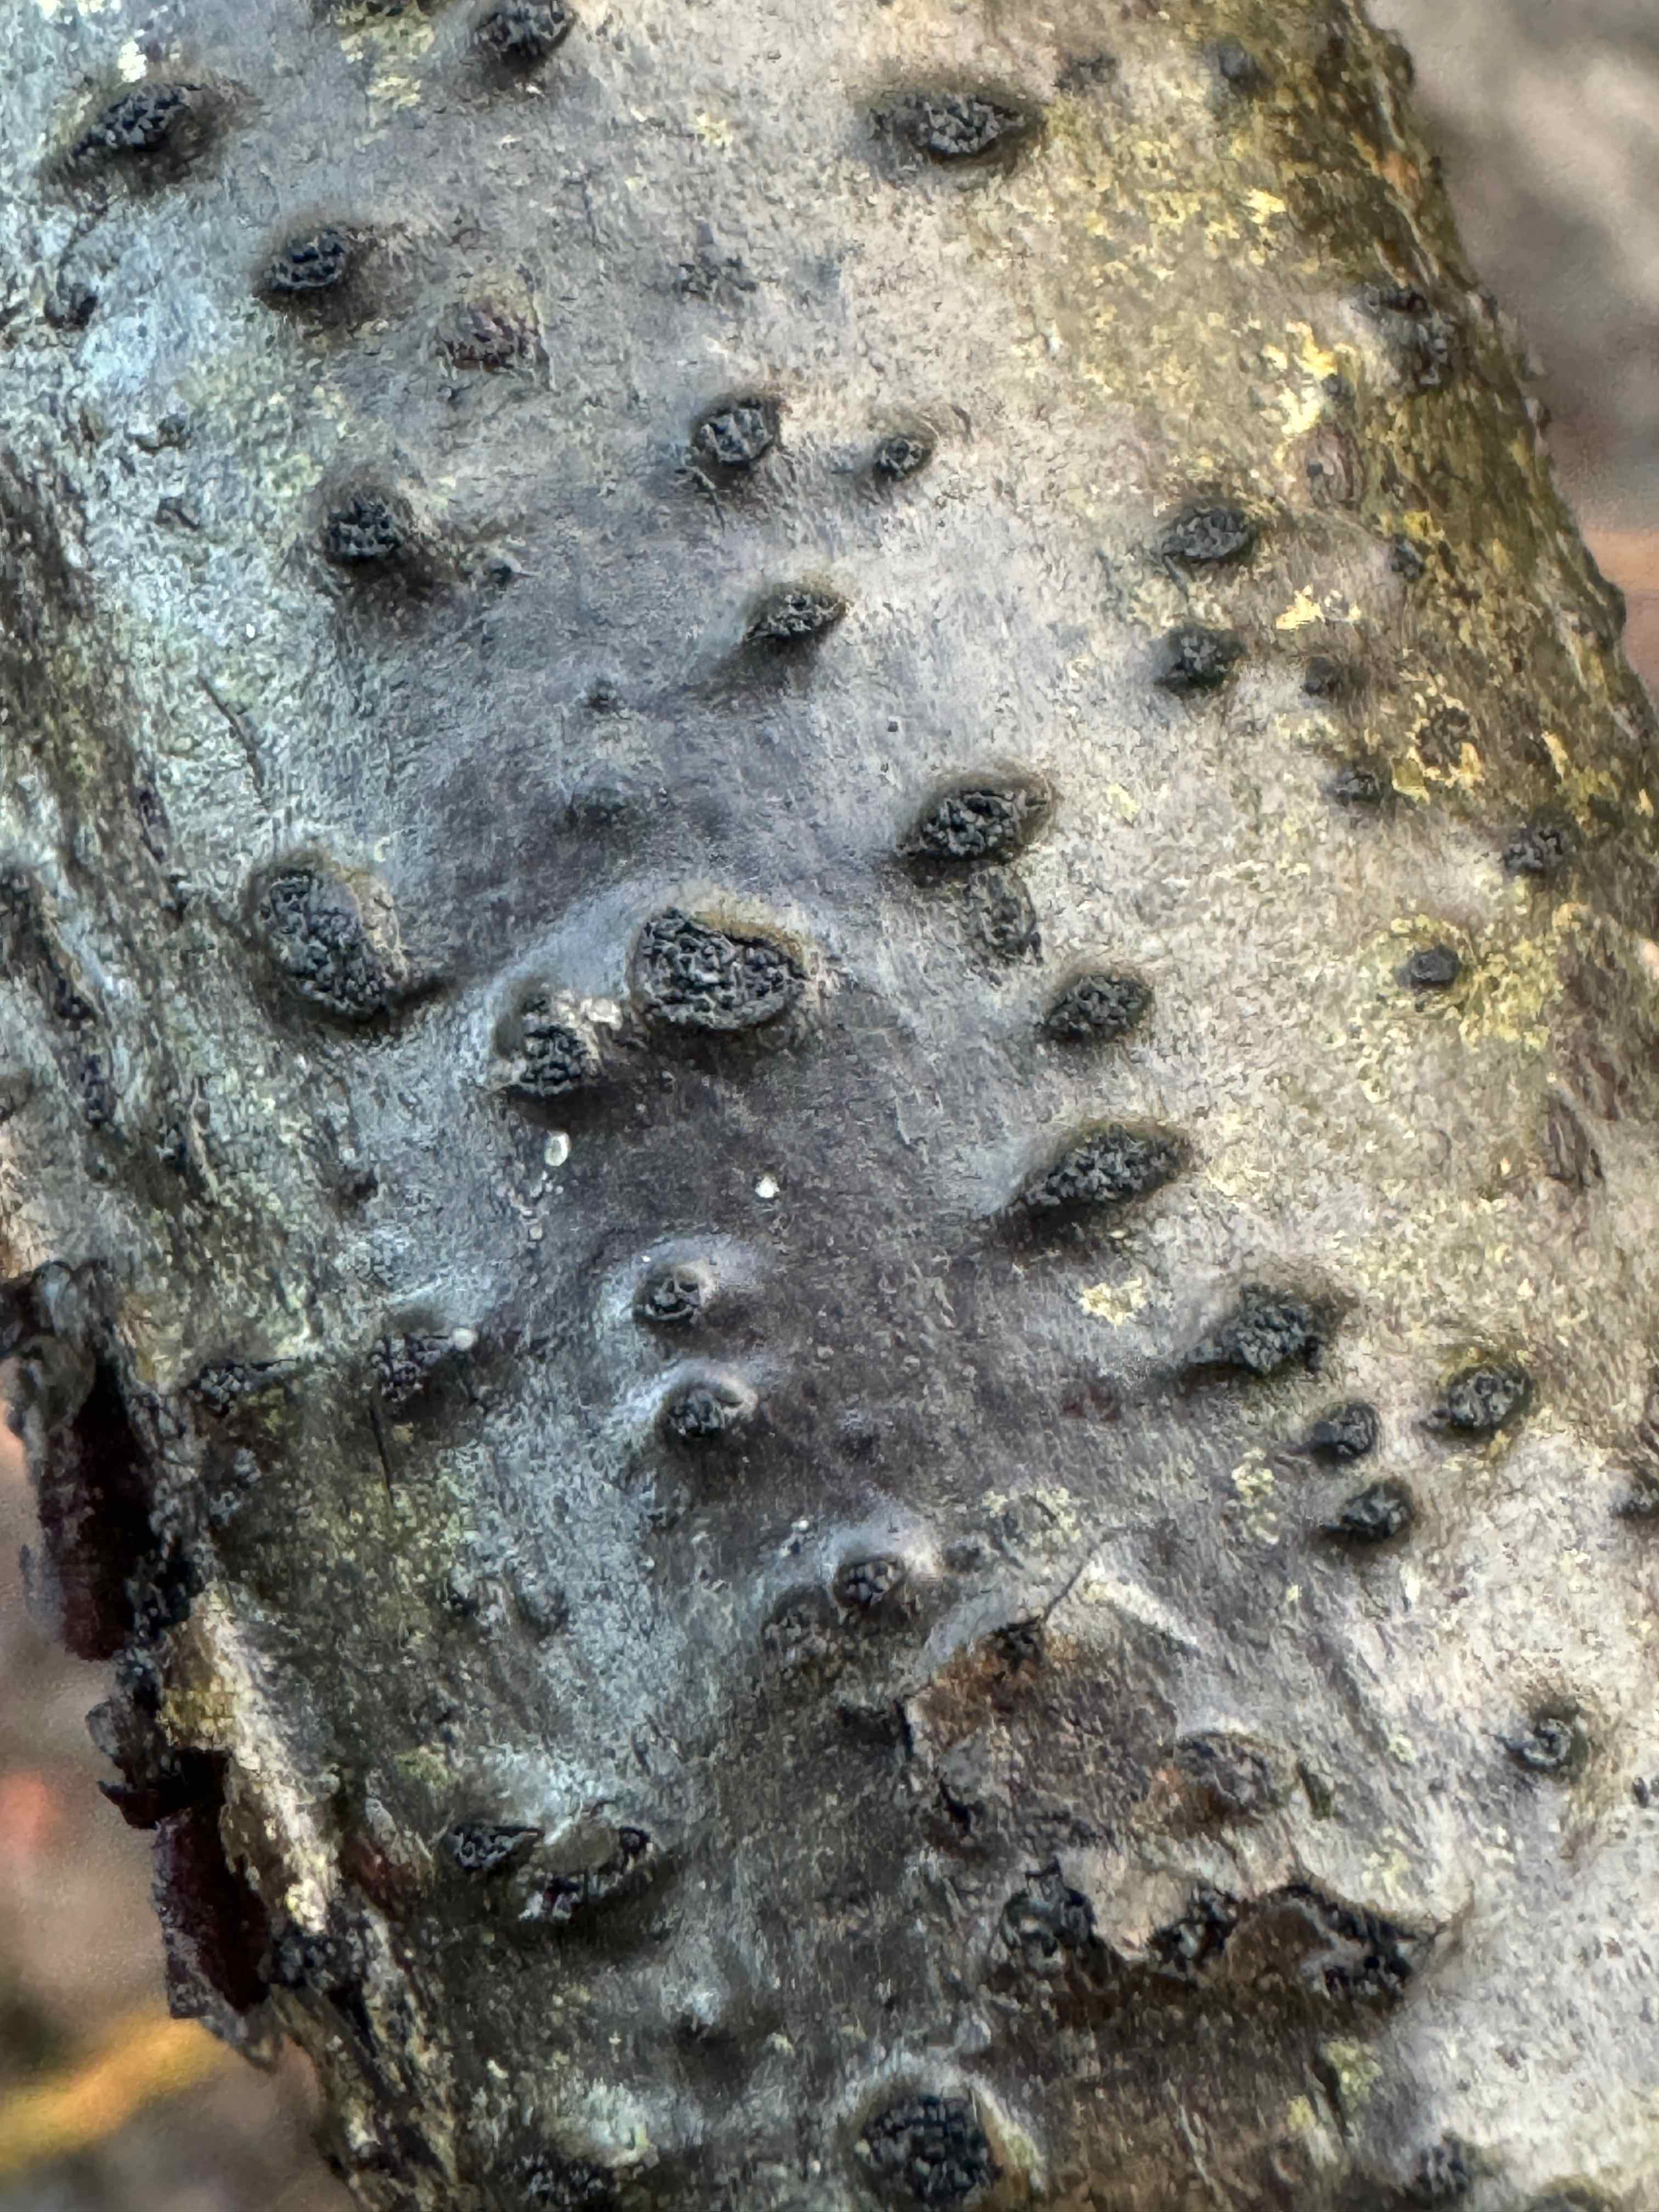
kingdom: Fungi
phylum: Ascomycota
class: Sordariomycetes
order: Xylariales
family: Diatrypaceae
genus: Eutypella
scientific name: Eutypella sorbi
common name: rønne-kulskorpe
